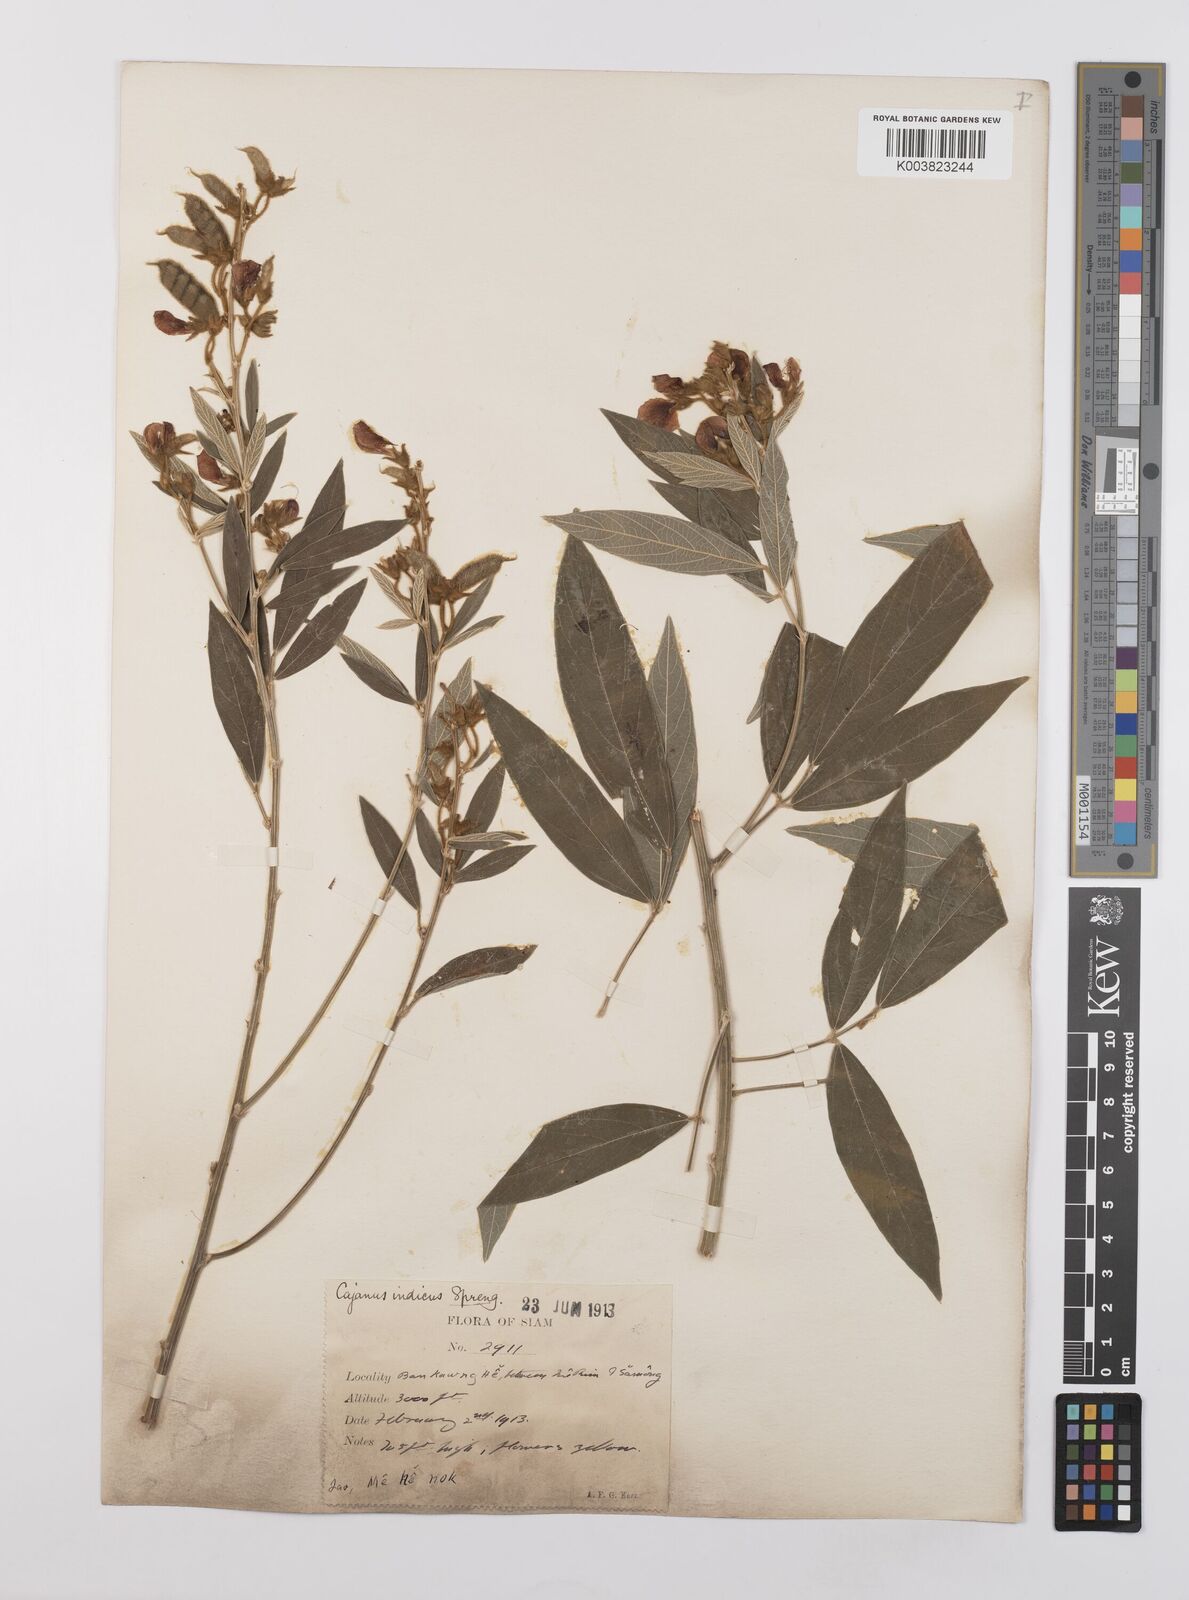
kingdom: Plantae
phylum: Tracheophyta
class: Magnoliopsida
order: Fabales
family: Fabaceae
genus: Cajanus
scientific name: Cajanus cajan
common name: Pigeonpea
